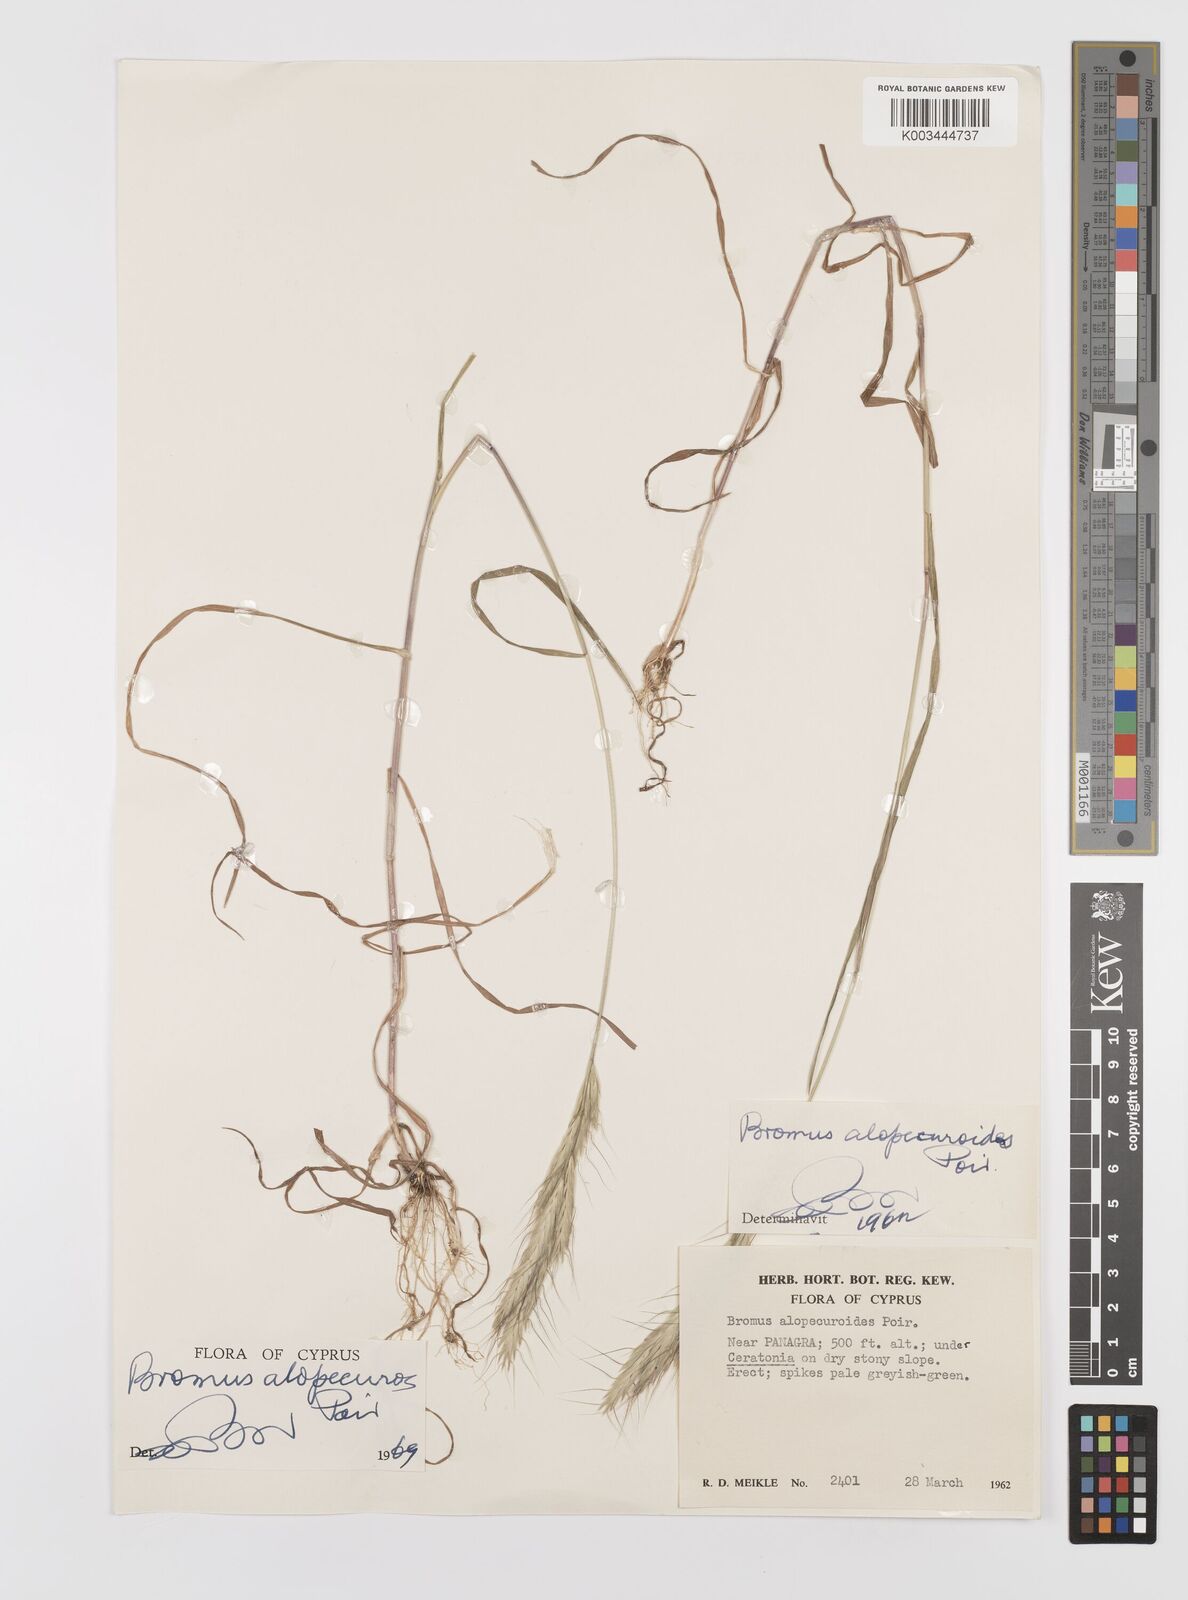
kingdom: Plantae
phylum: Tracheophyta
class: Liliopsida
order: Poales
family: Poaceae
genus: Bromus
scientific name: Bromus alopecuros
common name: Weedy brome
